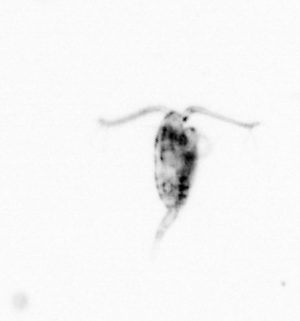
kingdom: Animalia
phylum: Arthropoda
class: Copepoda
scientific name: Copepoda
